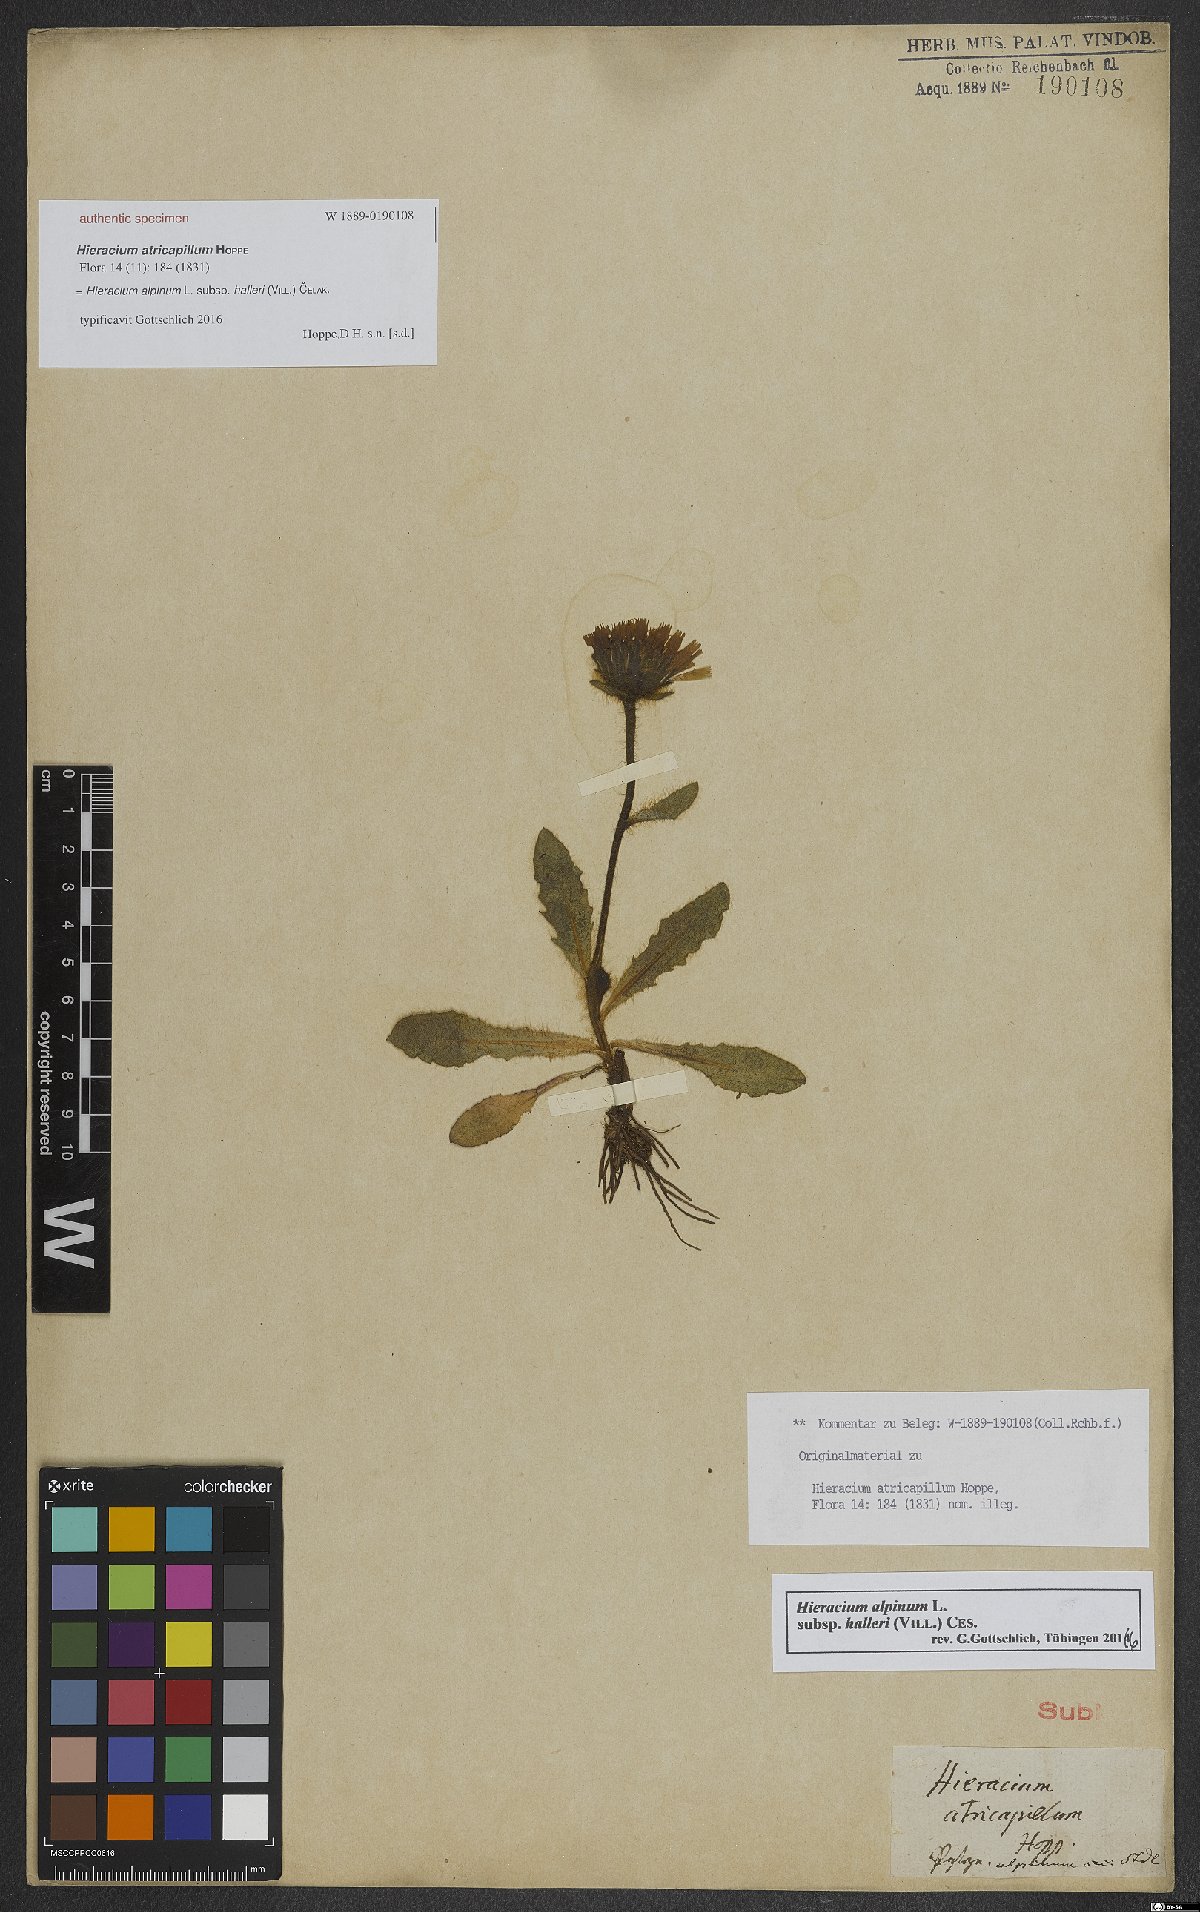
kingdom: Plantae
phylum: Tracheophyta
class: Magnoliopsida
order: Asterales
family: Asteraceae
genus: Hieracium
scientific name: Hieracium alpinum
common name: Alpine hawkweed
